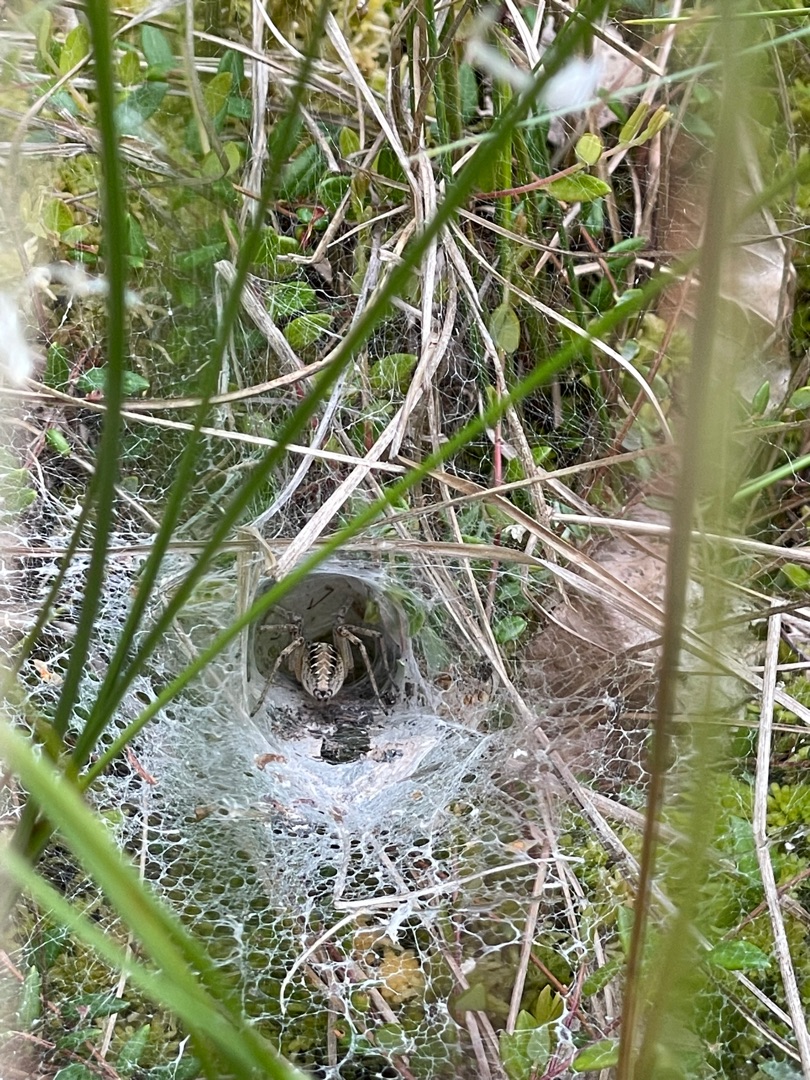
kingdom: Animalia
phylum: Arthropoda
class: Arachnida
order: Araneae
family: Agelenidae
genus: Agelena
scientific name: Agelena labyrinthica
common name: Labyrintedderkop
